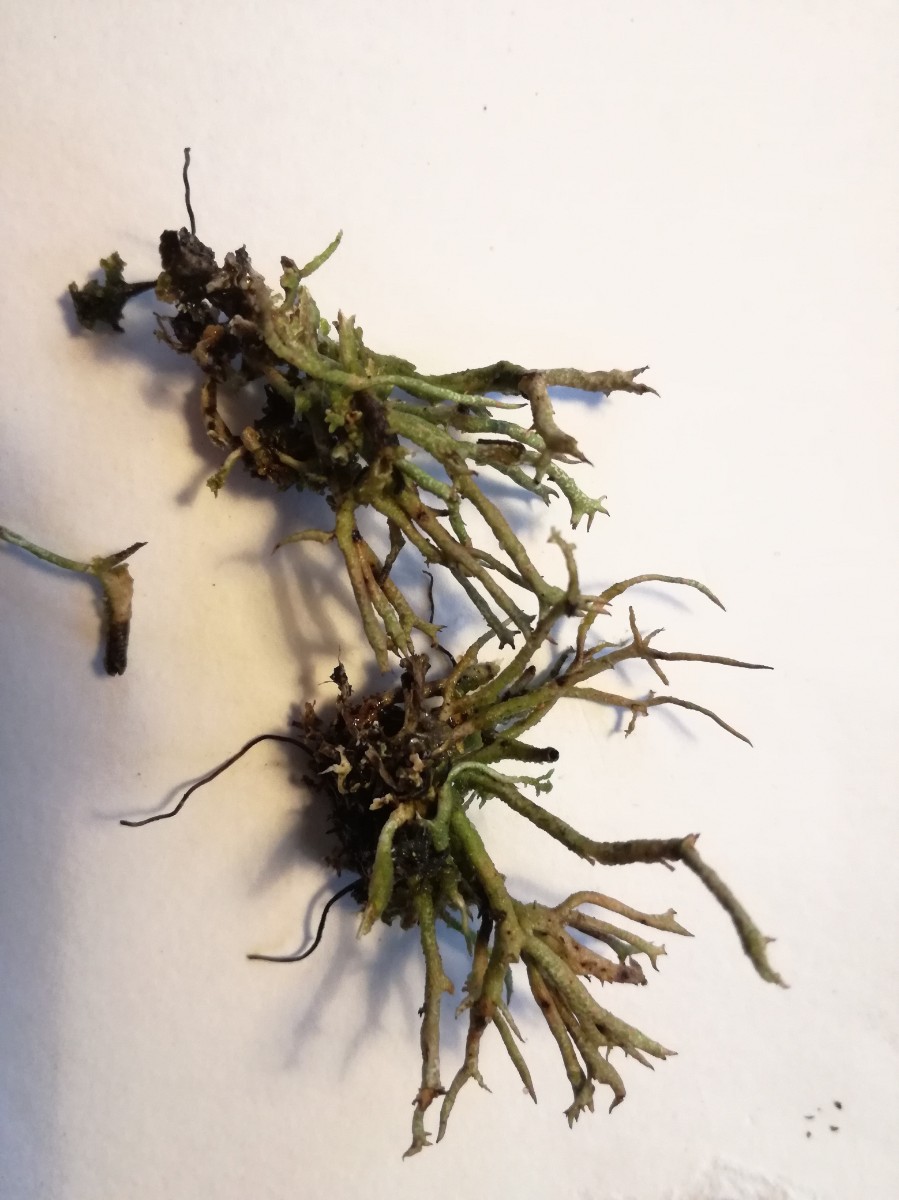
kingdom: Fungi
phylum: Ascomycota
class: Lecanoromycetes
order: Lecanorales
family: Cladoniaceae
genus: Cladonia
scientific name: Cladonia furcata
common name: kløftet bægerlav
